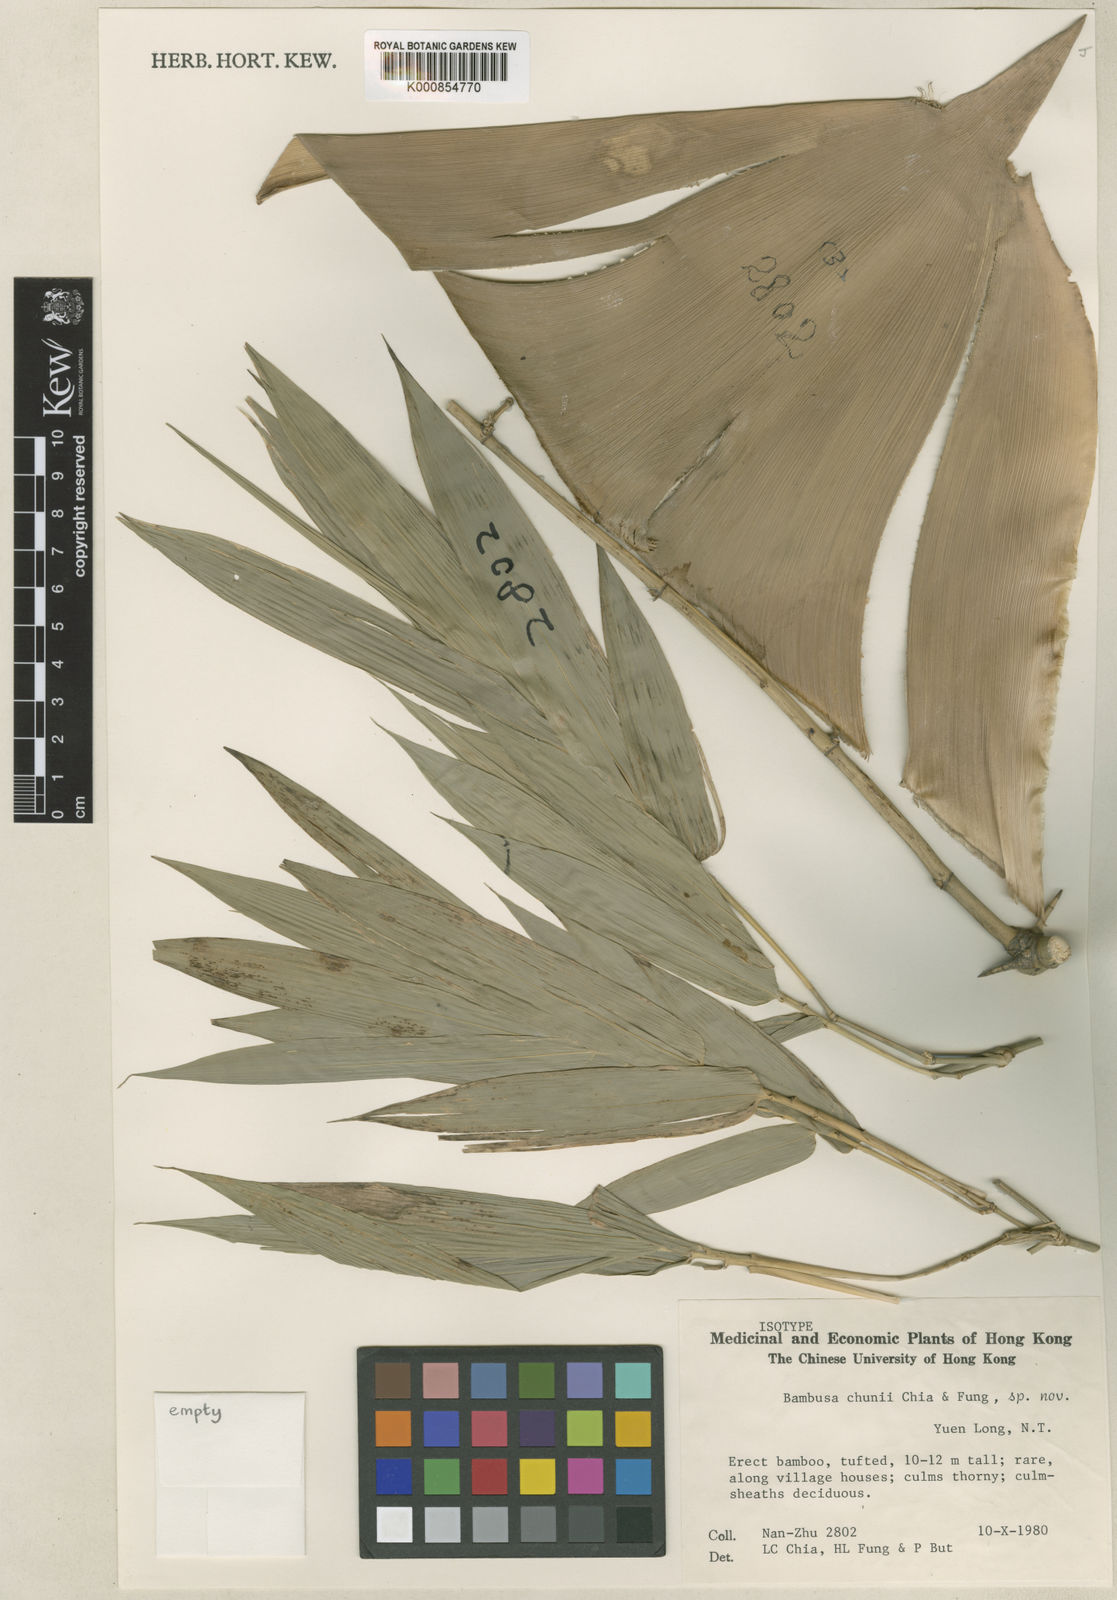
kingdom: Plantae
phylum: Tracheophyta
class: Liliopsida
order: Poales
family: Poaceae
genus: Bambusa
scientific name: Bambusa chunii
